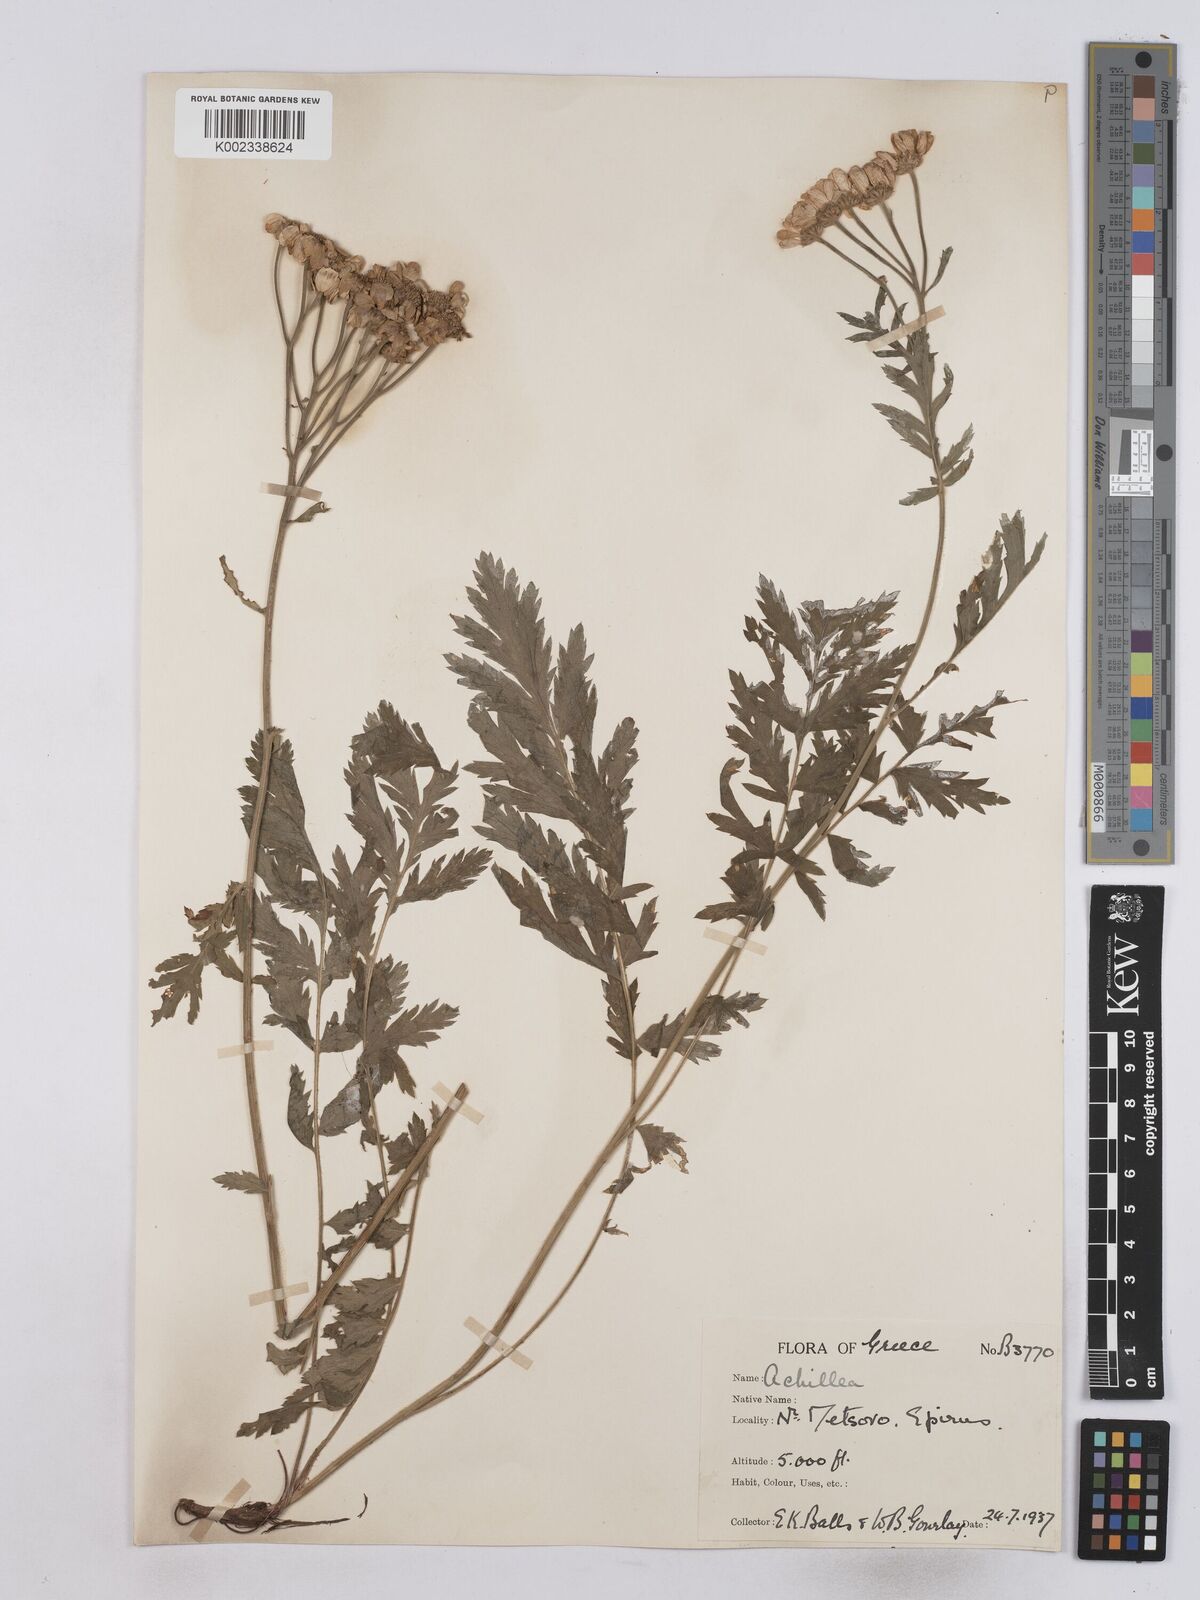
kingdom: Plantae
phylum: Tracheophyta
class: Magnoliopsida
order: Asterales
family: Asteraceae
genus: Tanacetum
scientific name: Tanacetum corymbosum
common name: Scentless feverfew
